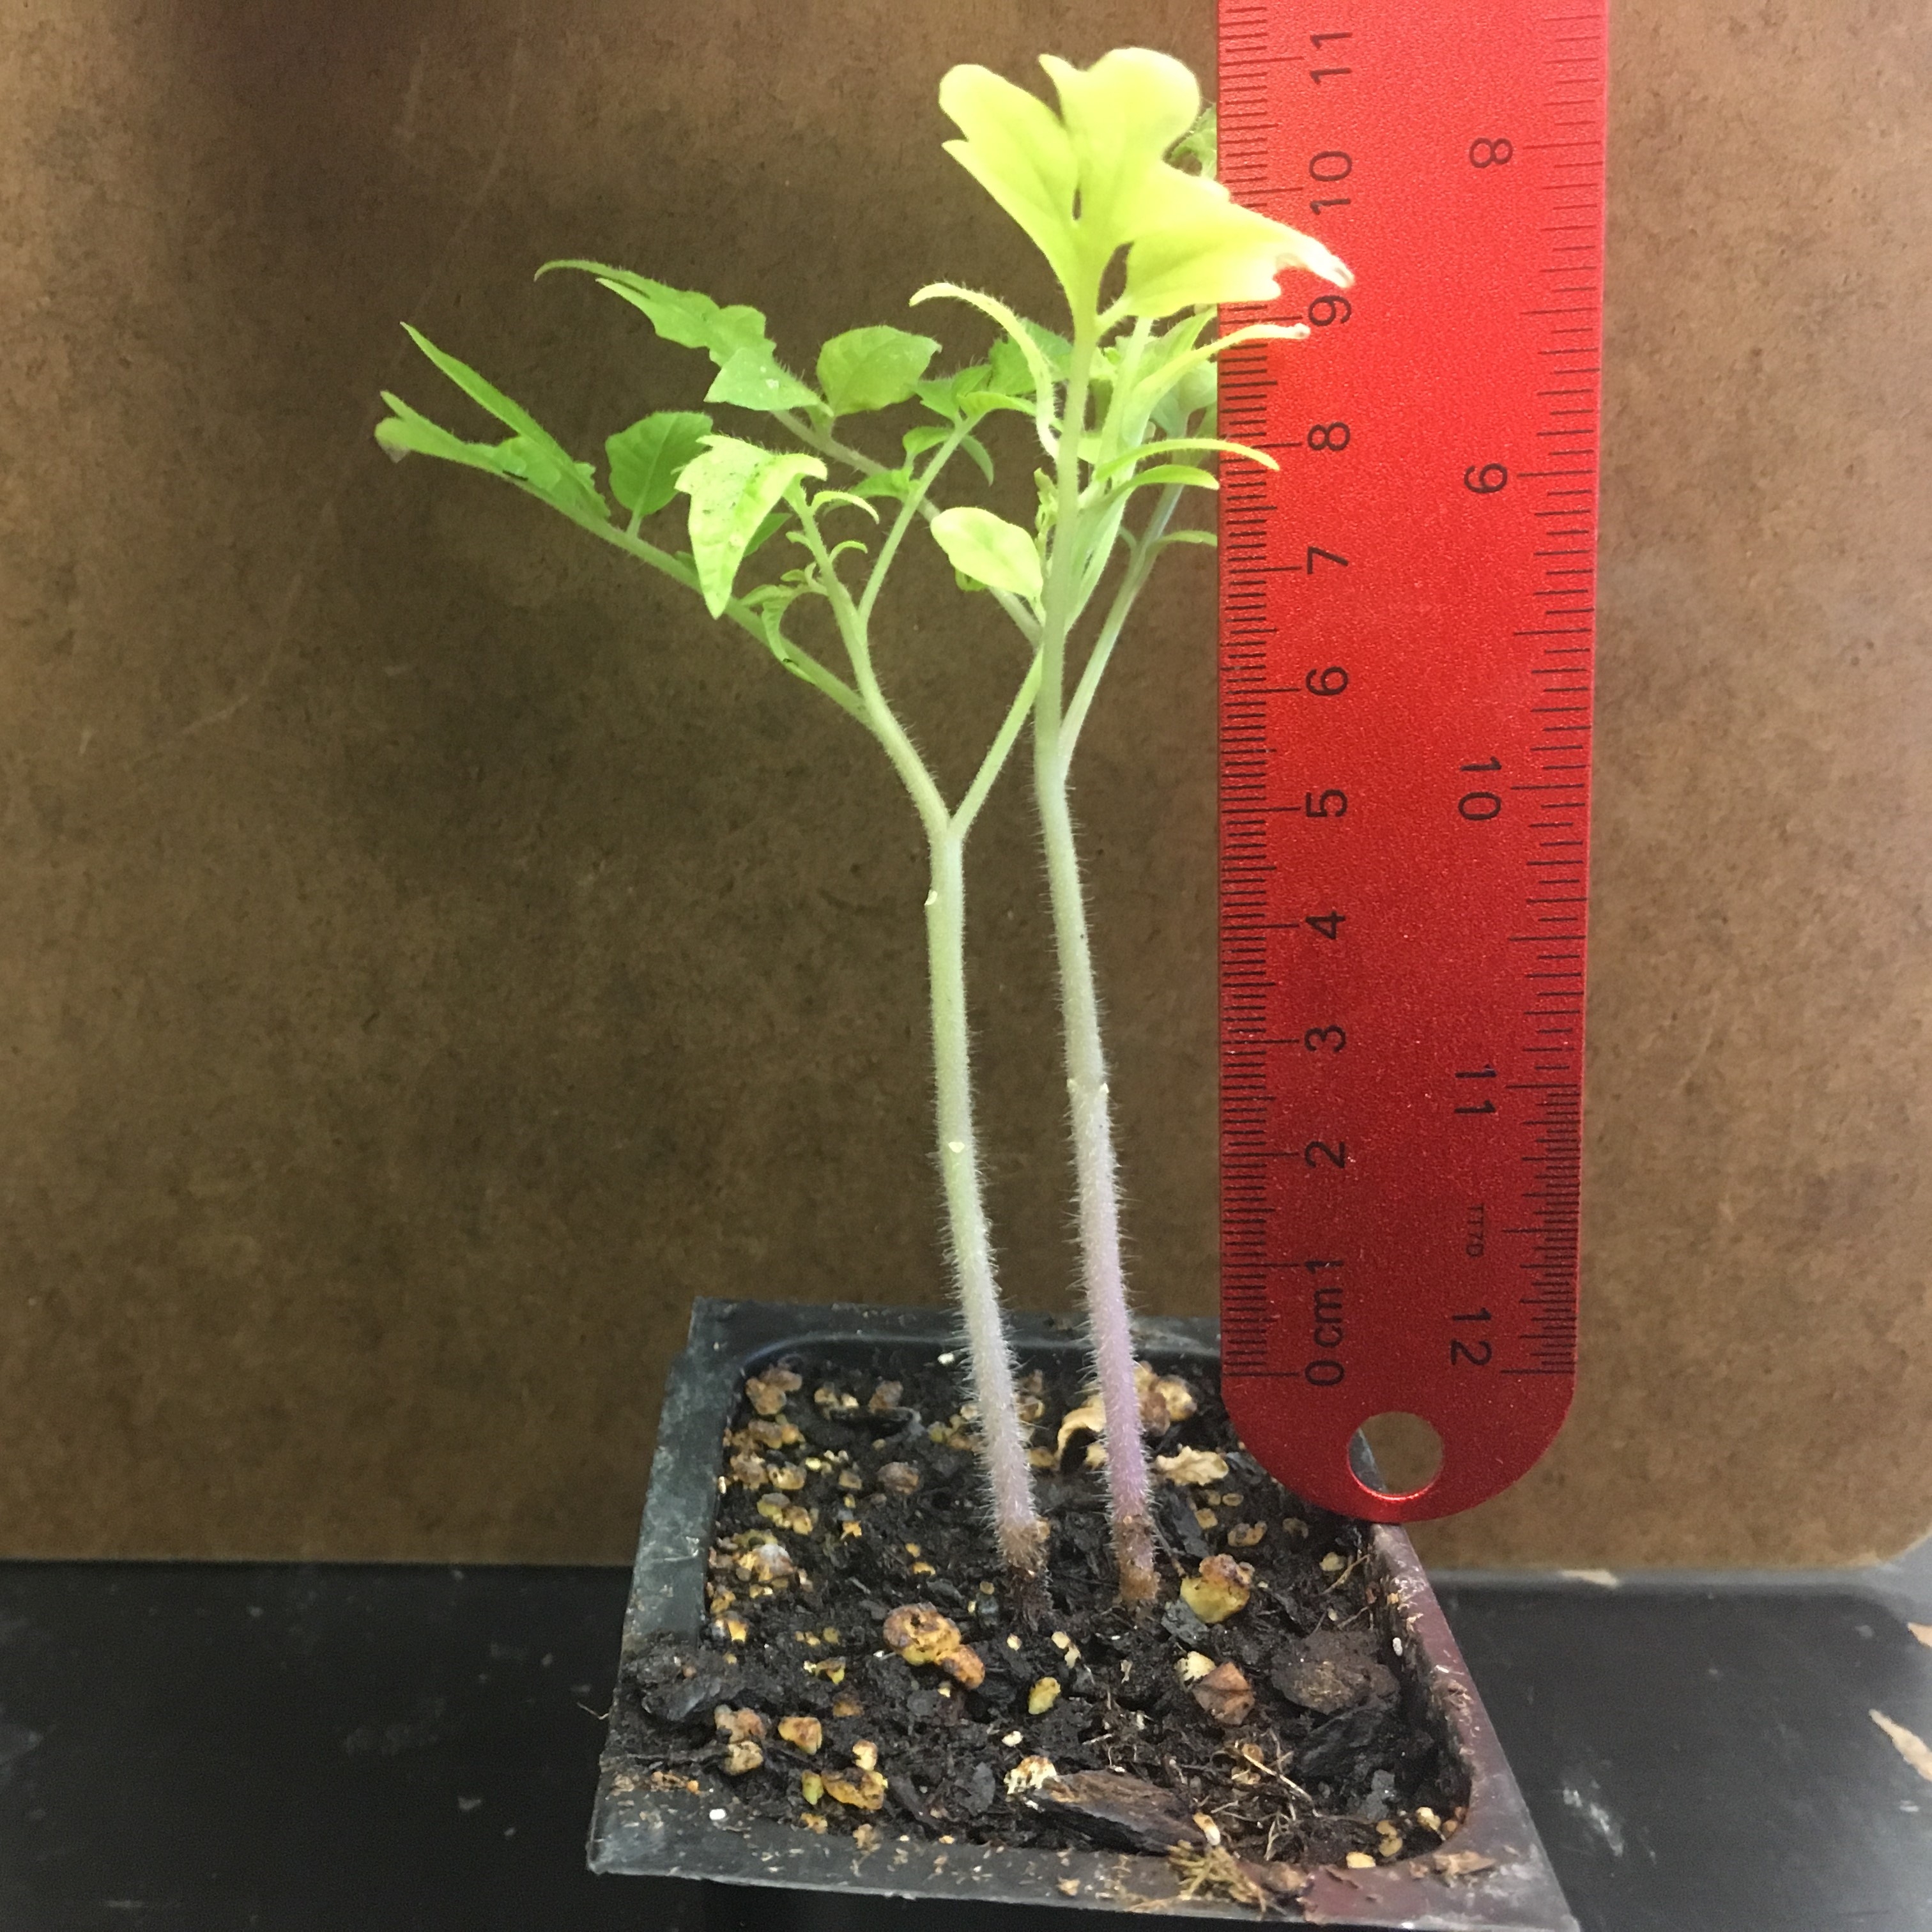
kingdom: Plantae
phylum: Tracheophyta
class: Magnoliopsida
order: Solanales
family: Solanaceae
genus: Solanum
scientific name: Solanum lycopersicum
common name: Tomato
